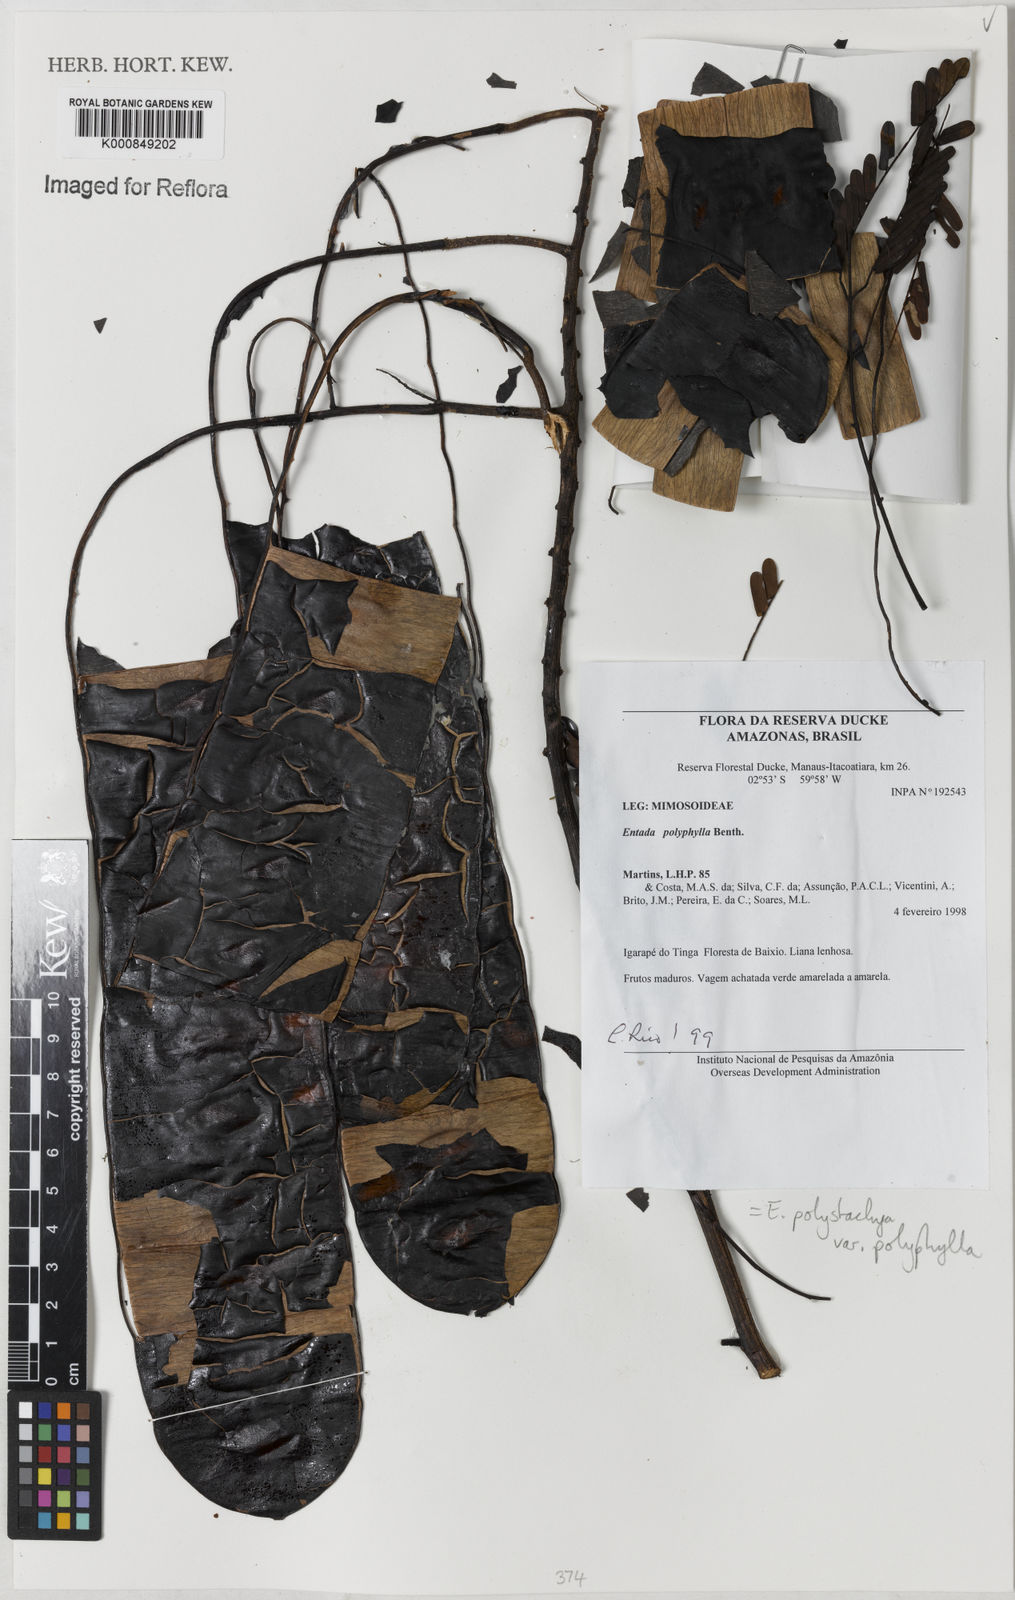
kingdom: Plantae
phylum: Tracheophyta
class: Magnoliopsida
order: Fabales
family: Fabaceae
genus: Entada
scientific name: Entada polyphylla
